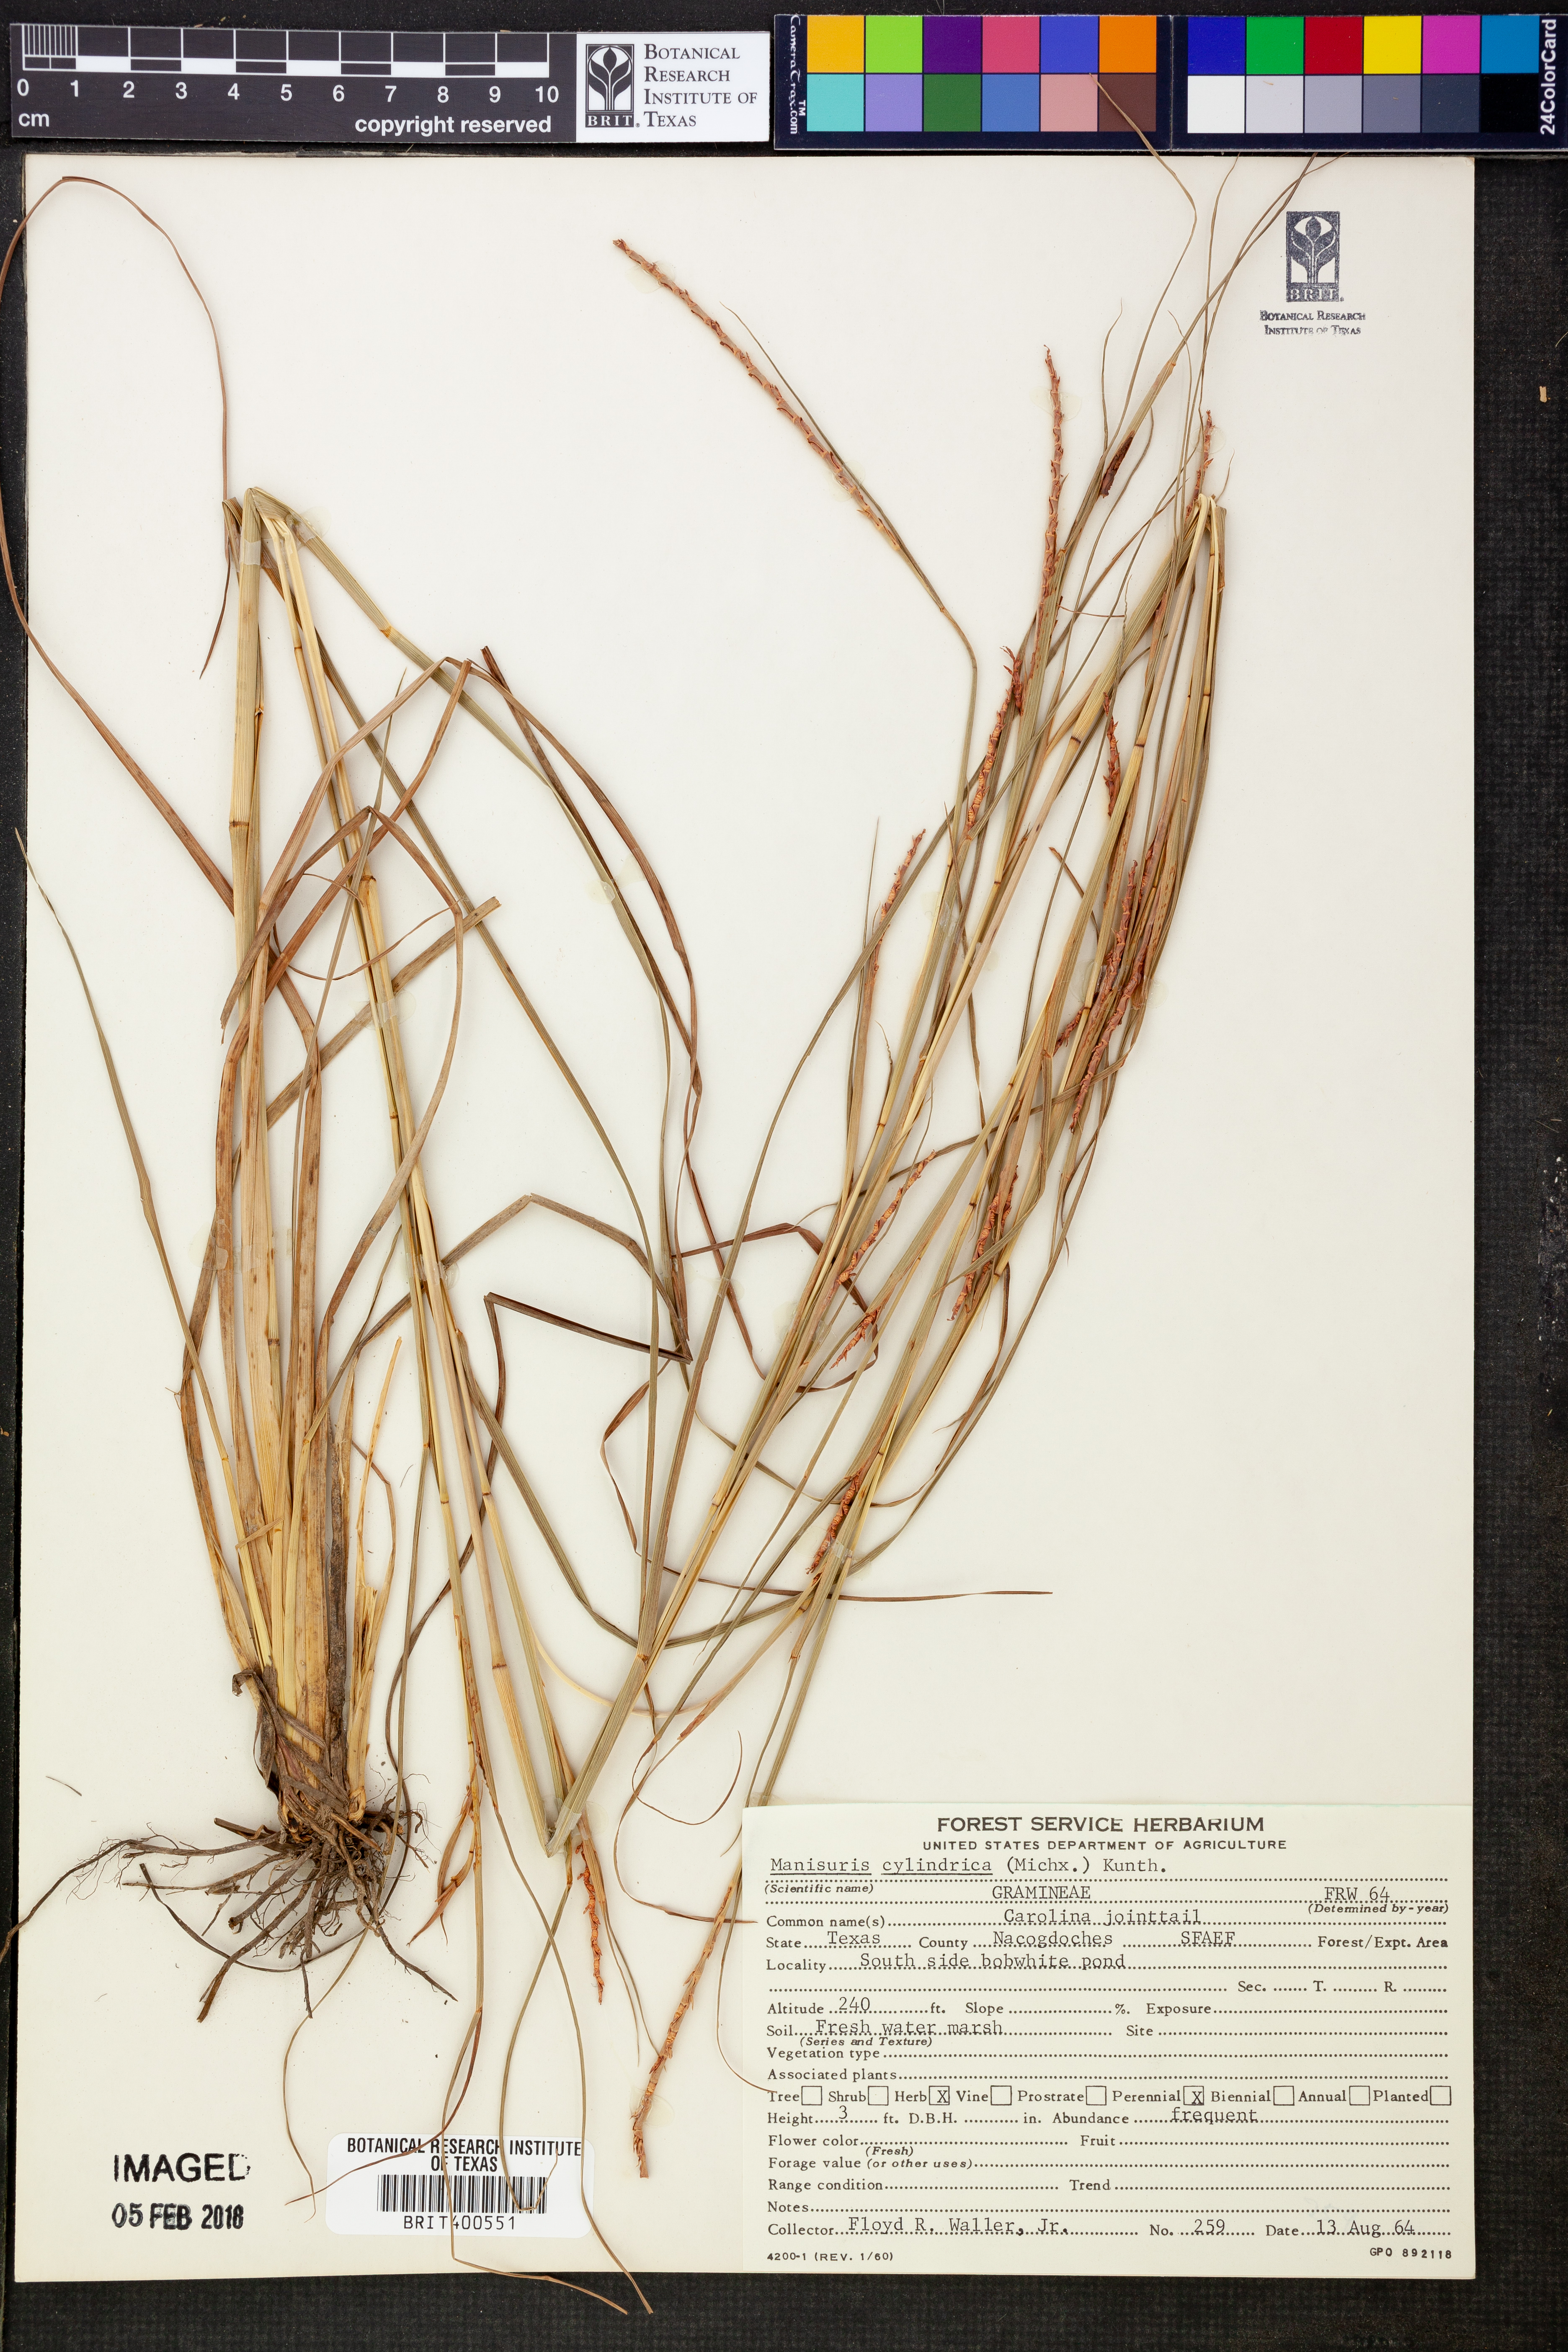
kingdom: Plantae
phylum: Tracheophyta
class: Liliopsida
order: Poales
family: Poaceae
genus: Rottboellia
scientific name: Rottboellia campestris
